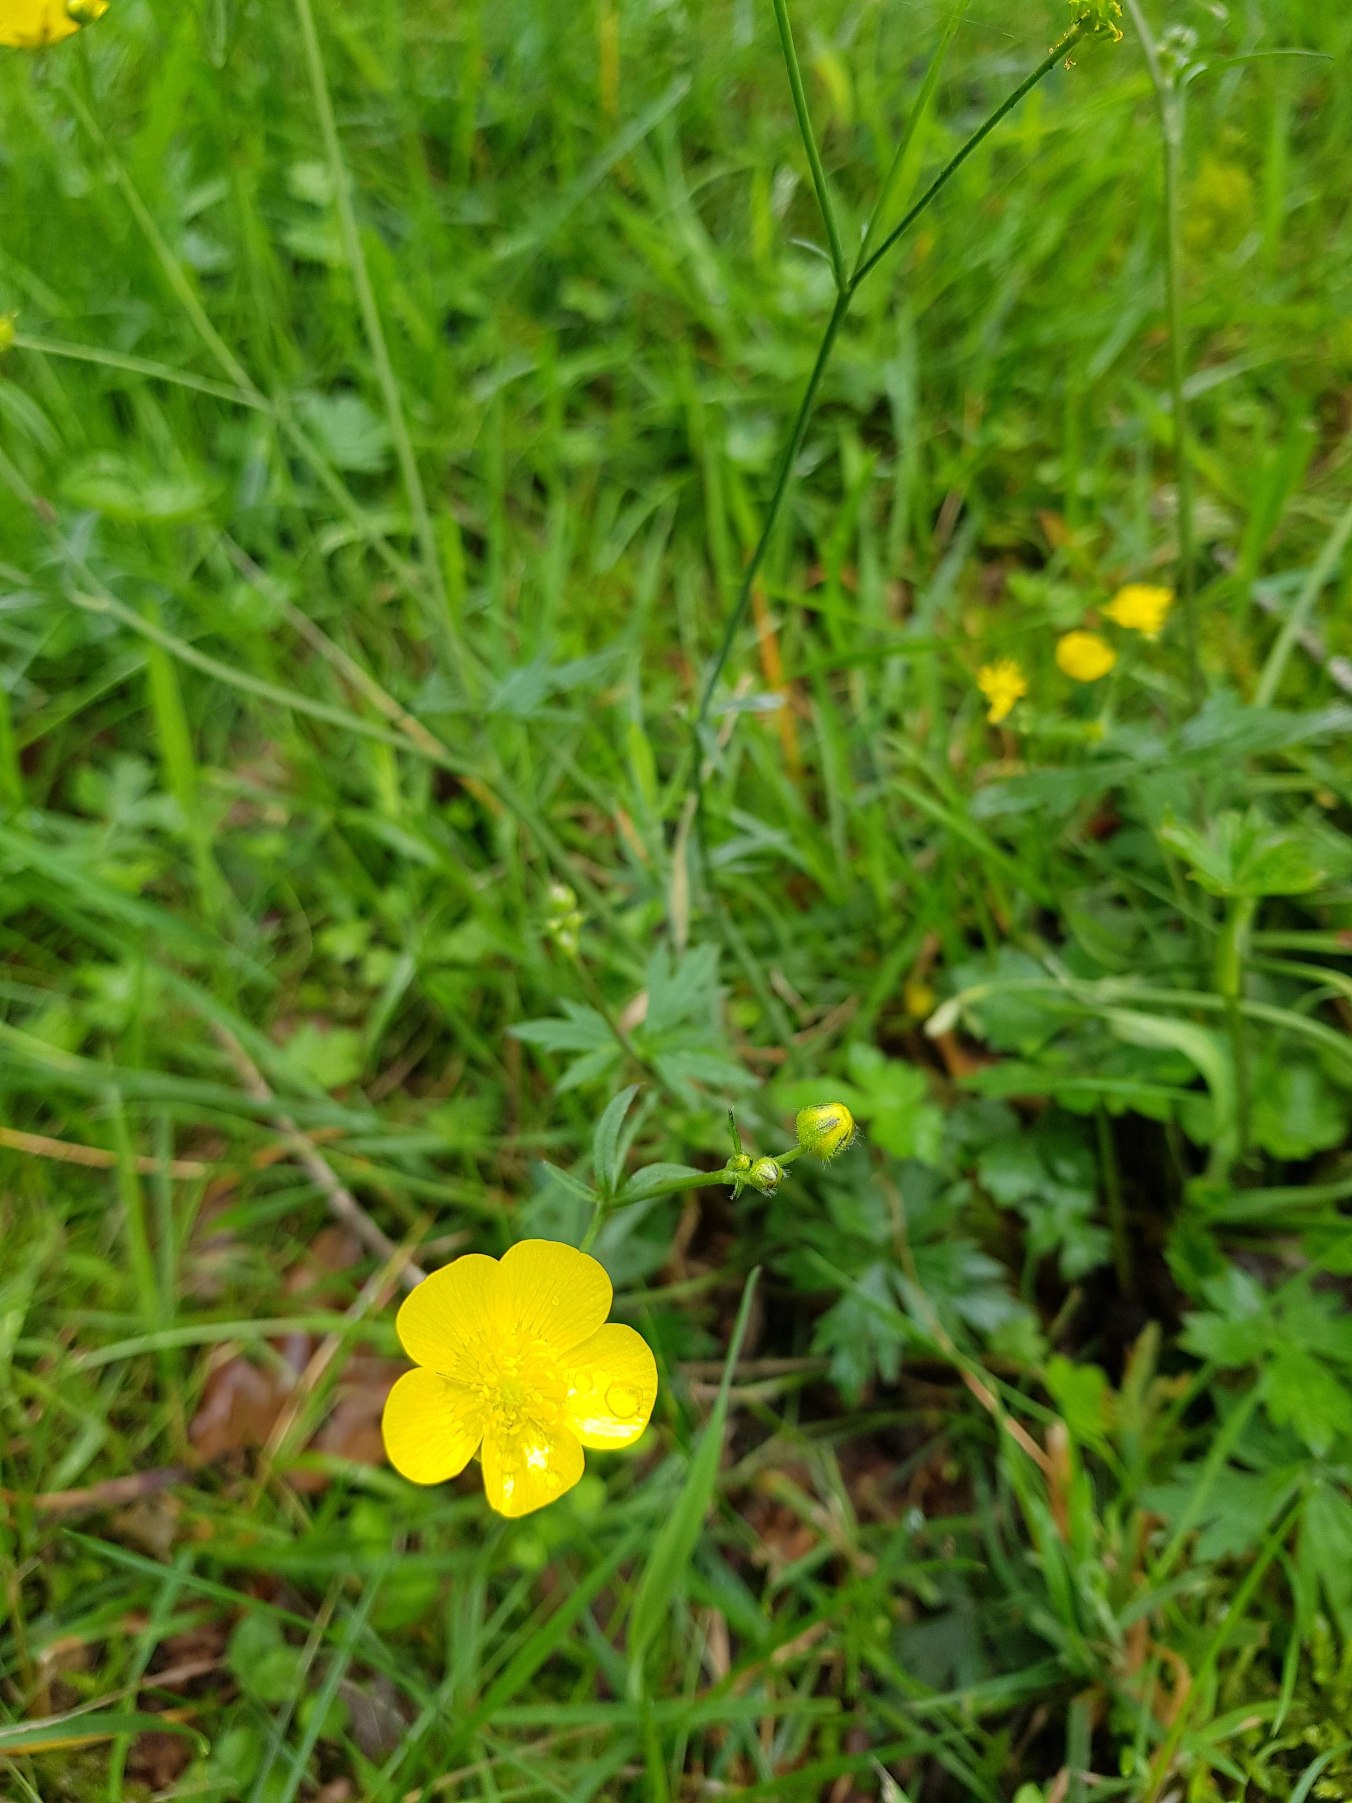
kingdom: Plantae
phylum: Tracheophyta
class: Magnoliopsida
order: Ranunculales
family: Ranunculaceae
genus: Ranunculus
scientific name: Ranunculus acris
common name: Bidende ranunkel
